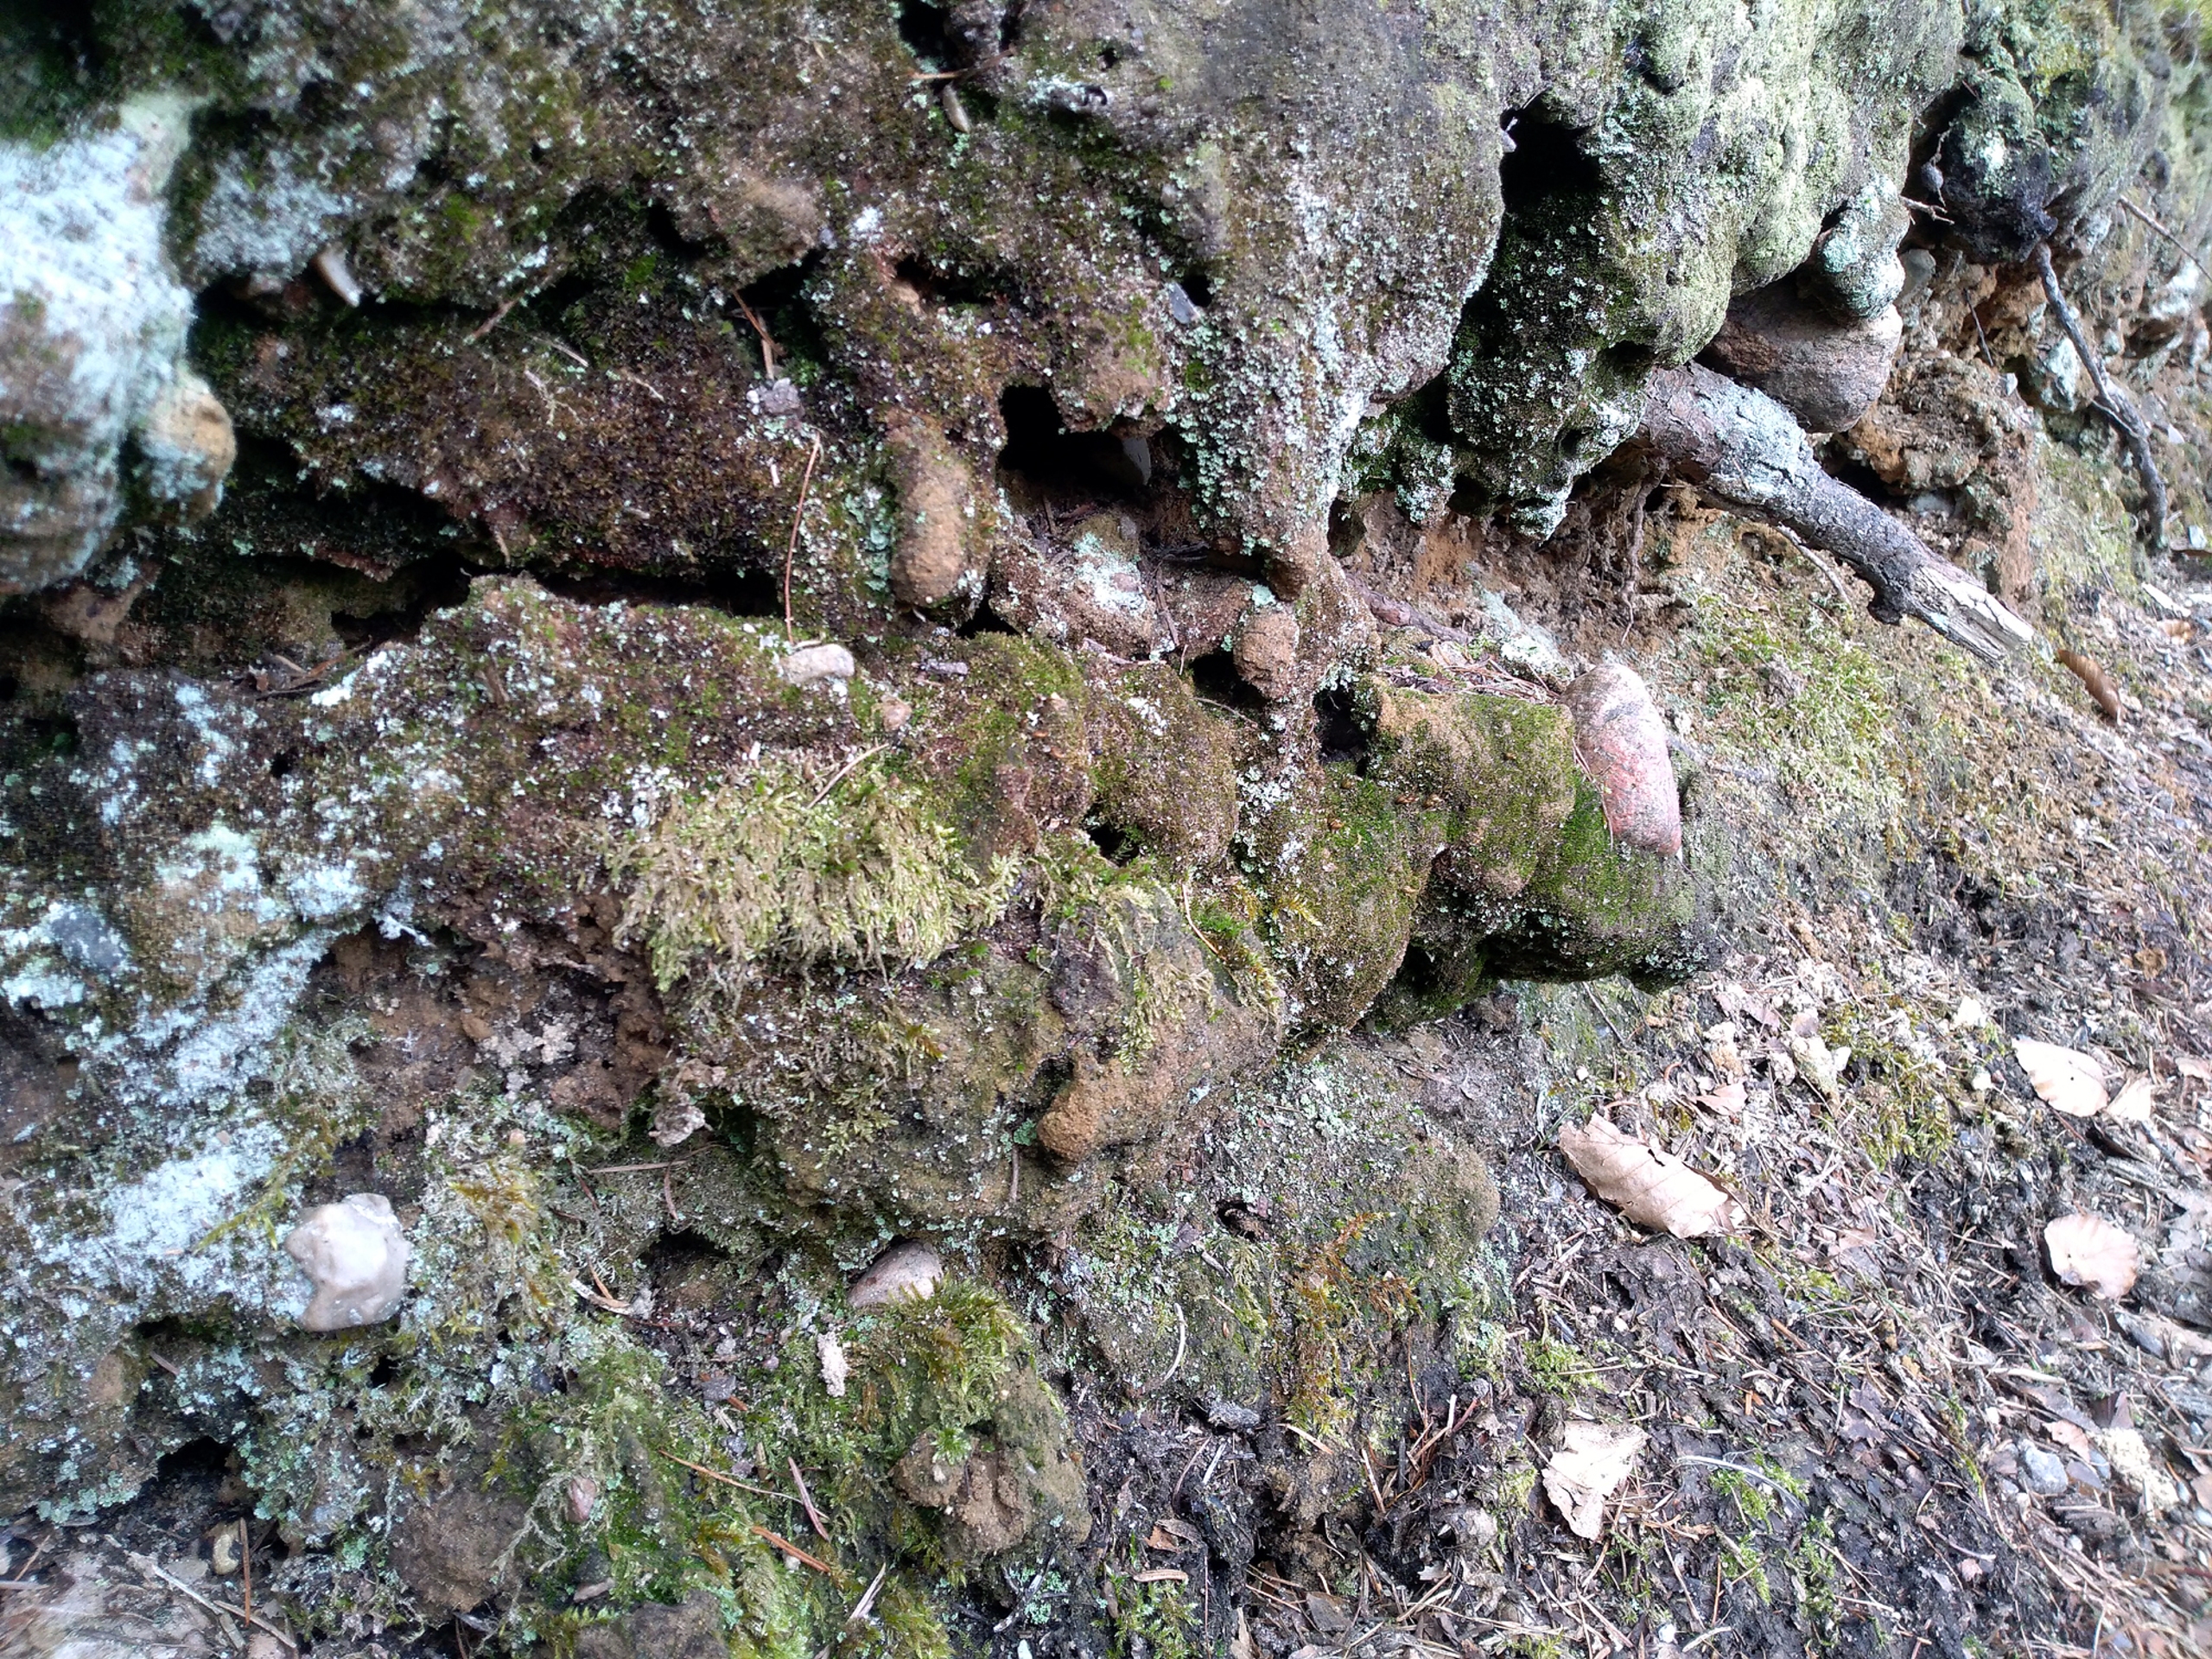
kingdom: Plantae
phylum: Bryophyta
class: Bryopsida
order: Diphysciales
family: Diphysciaceae
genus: Diphyscium
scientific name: Diphyscium foliosum
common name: Stilkløs sækkapsel
